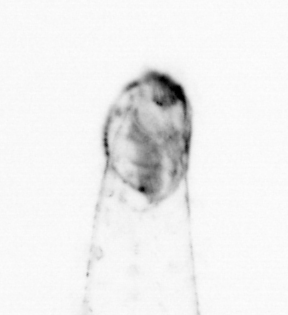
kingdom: Animalia
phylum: Chaetognatha
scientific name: Chaetognatha
